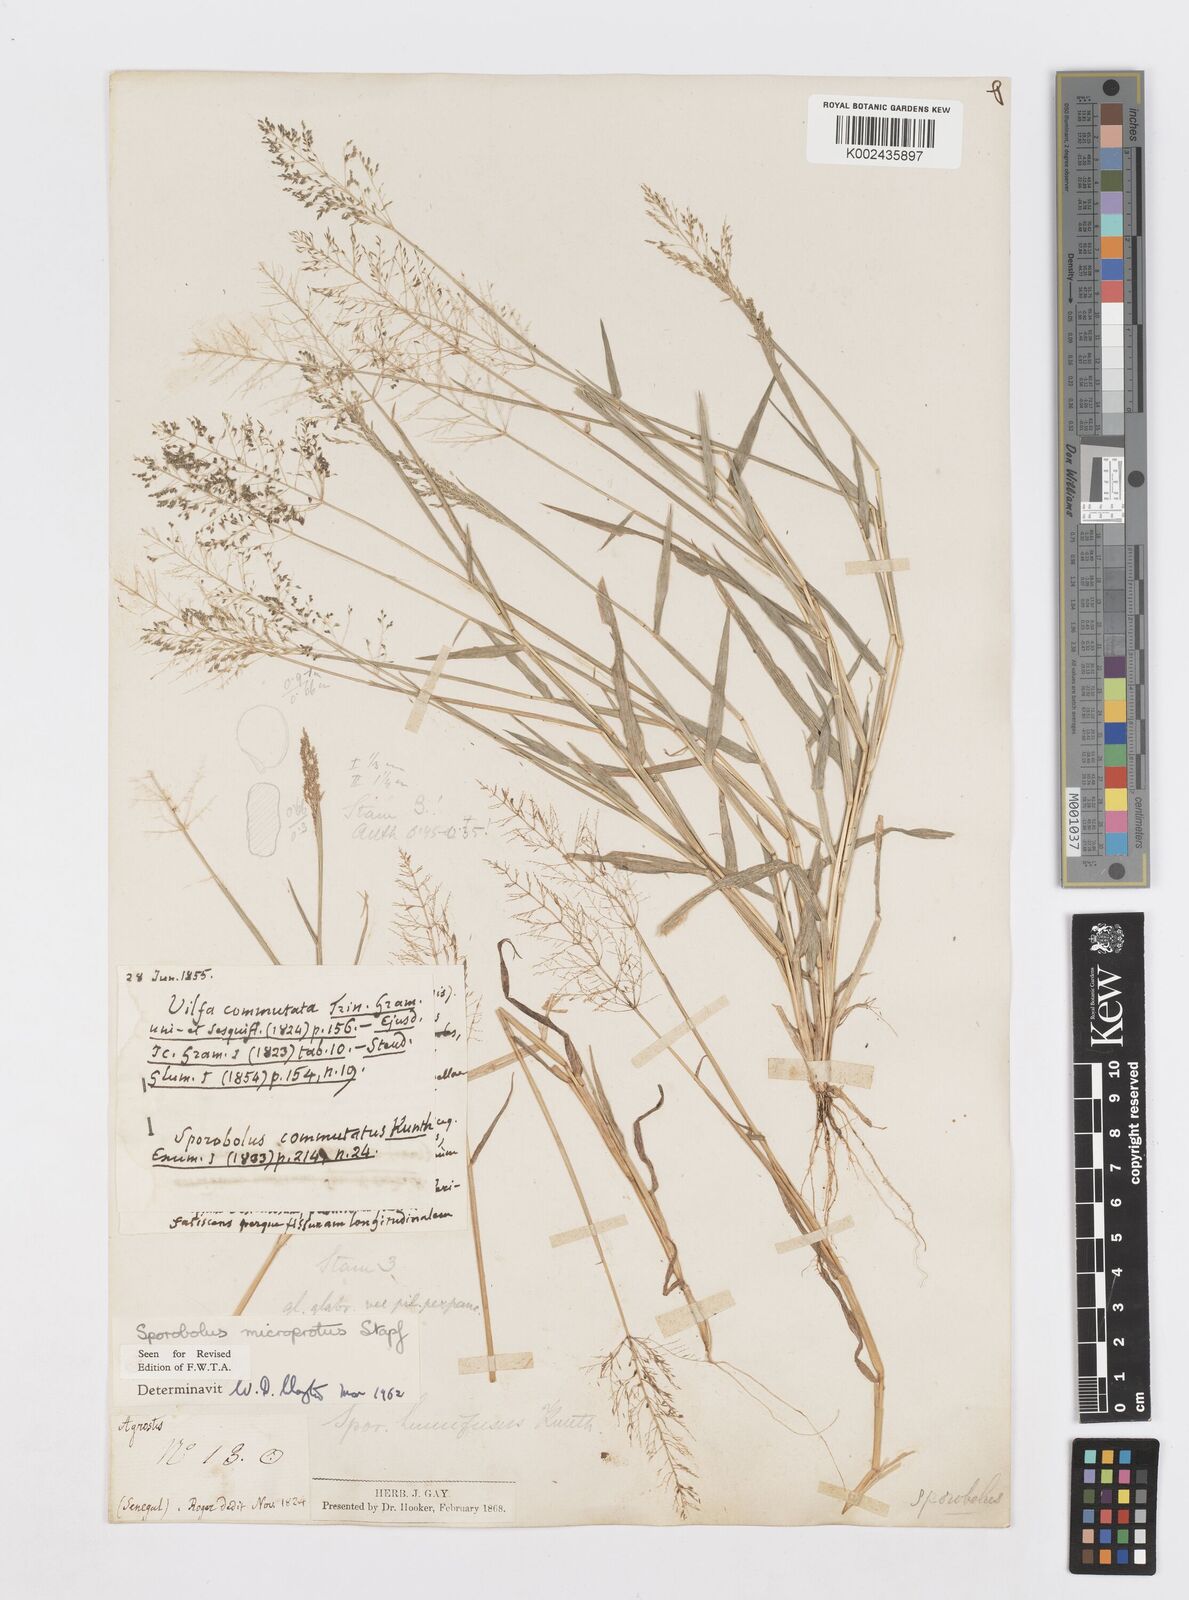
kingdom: Plantae
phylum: Tracheophyta
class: Liliopsida
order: Poales
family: Poaceae
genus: Sporobolus
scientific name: Sporobolus microprotus
